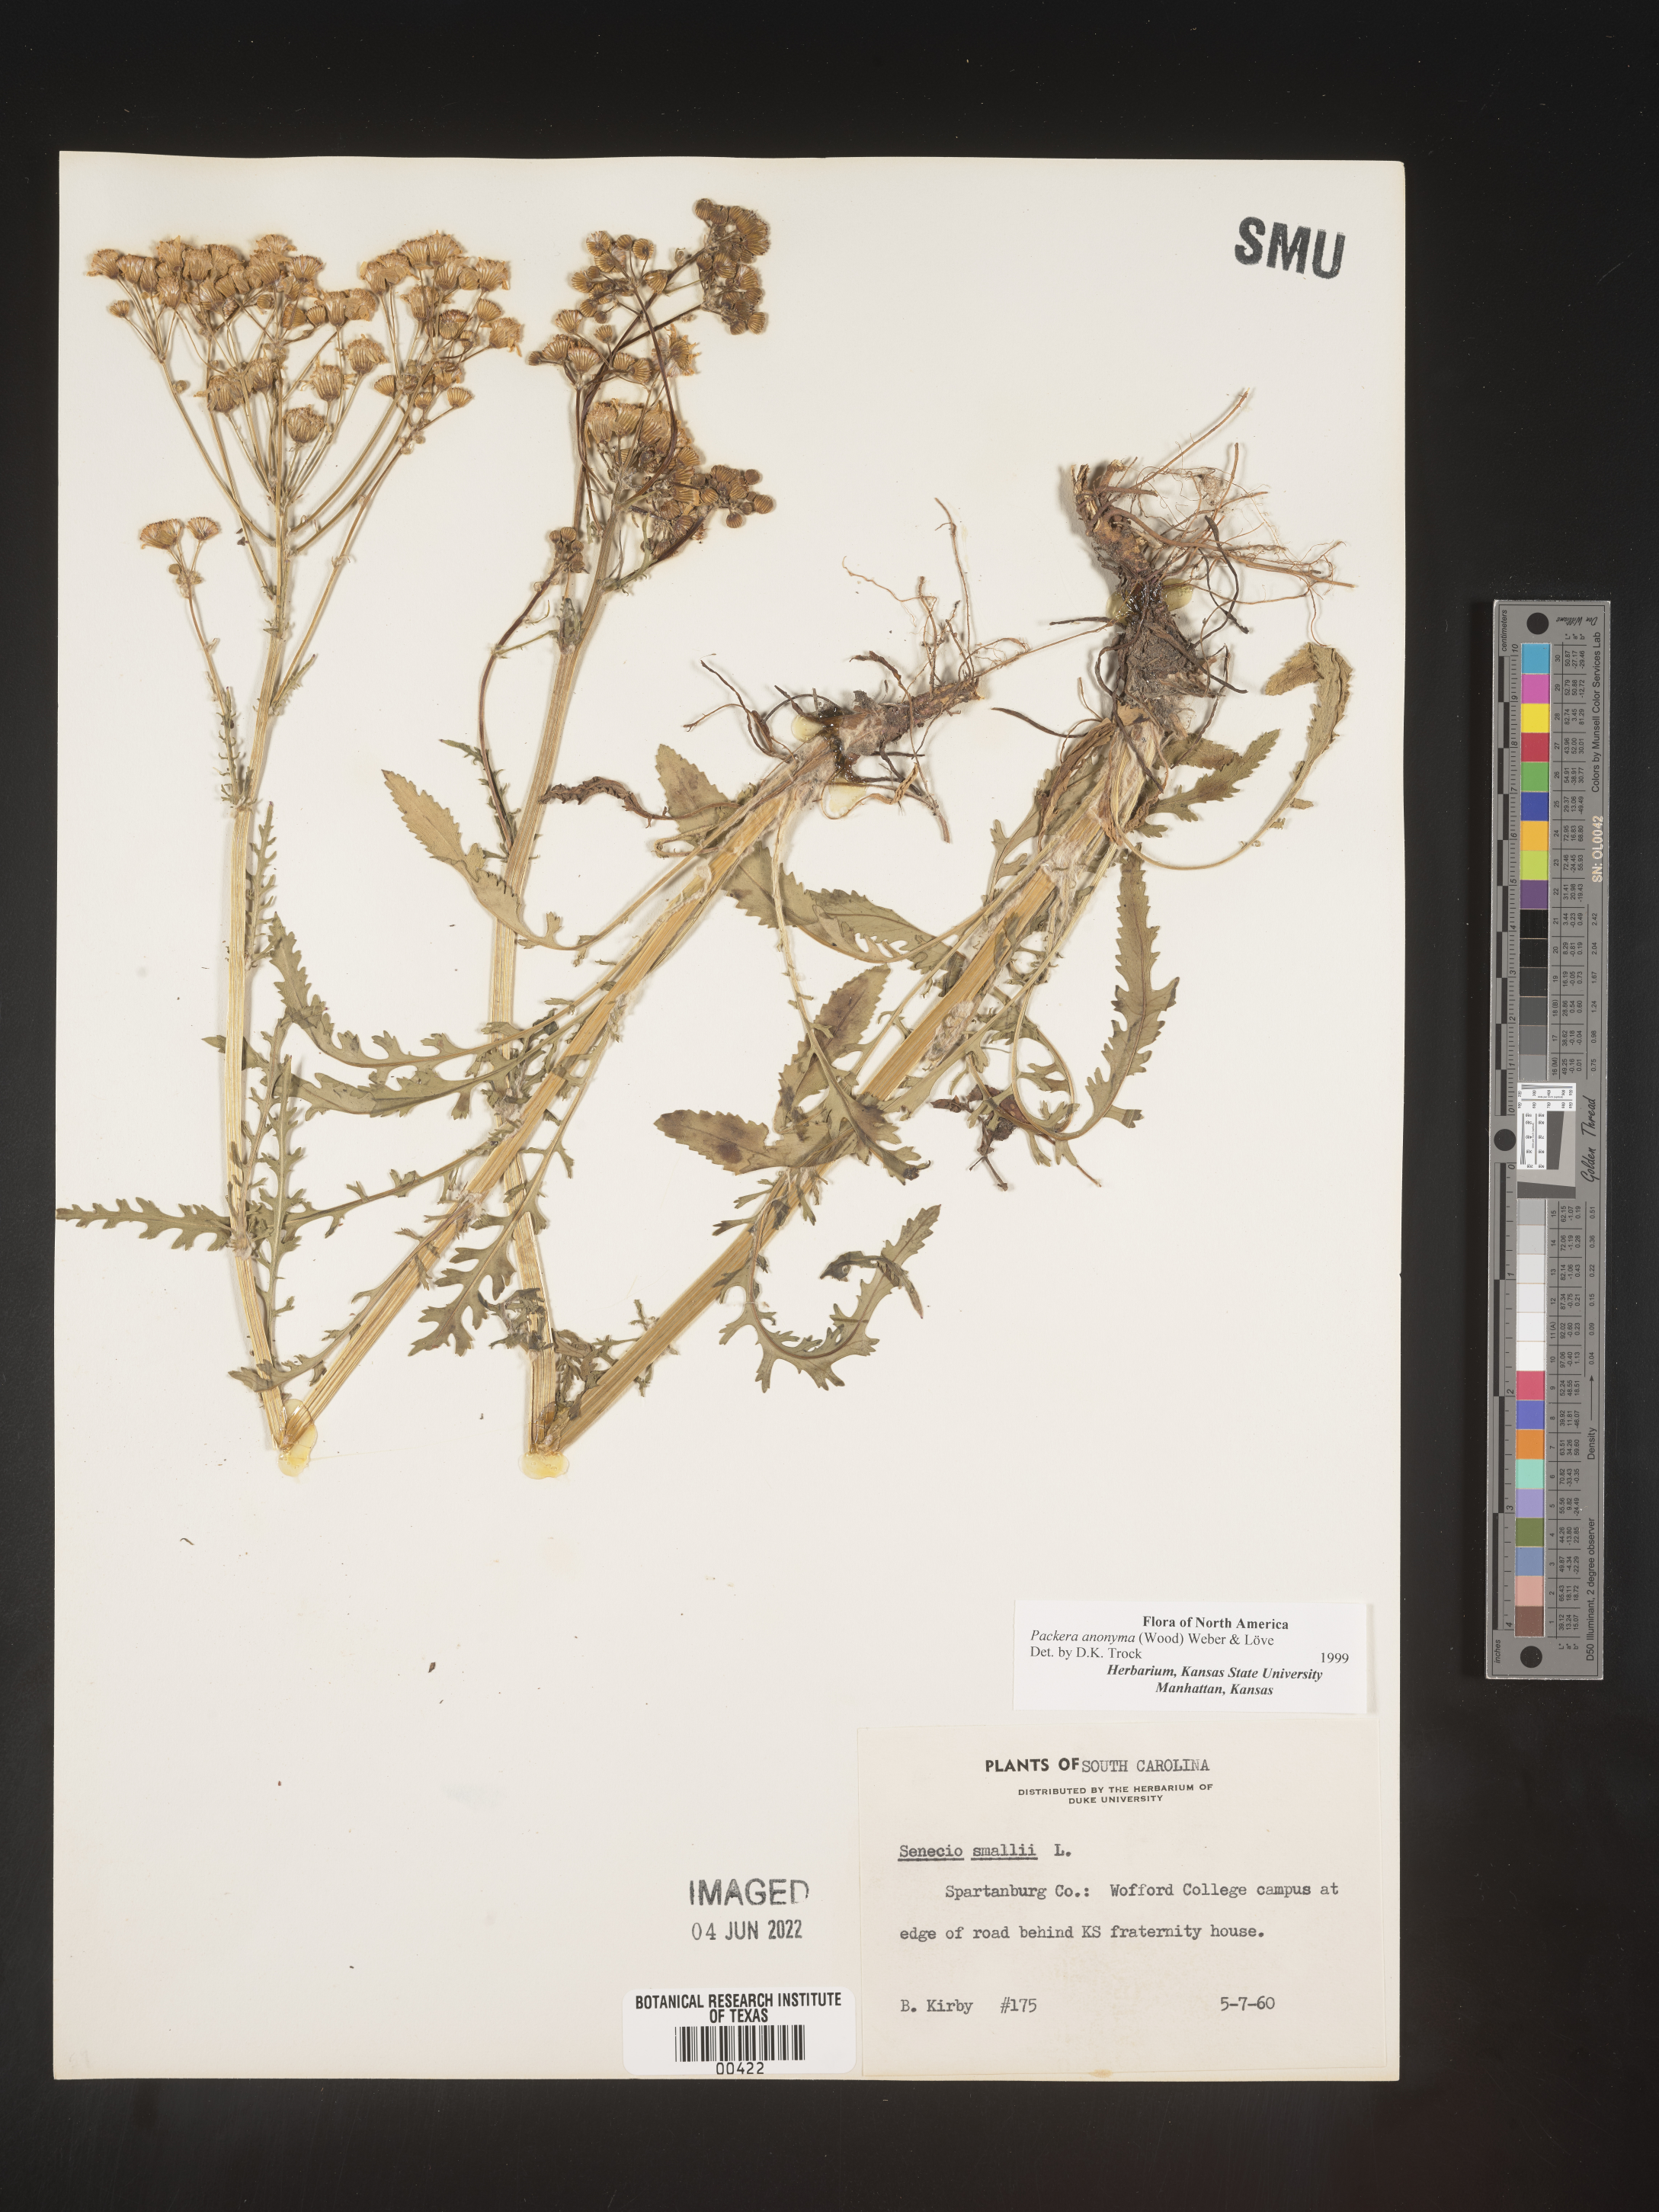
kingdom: Plantae
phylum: Tracheophyta
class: Magnoliopsida
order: Asterales
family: Asteraceae
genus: Packera
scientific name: Packera anonyma
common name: Small ragwort
